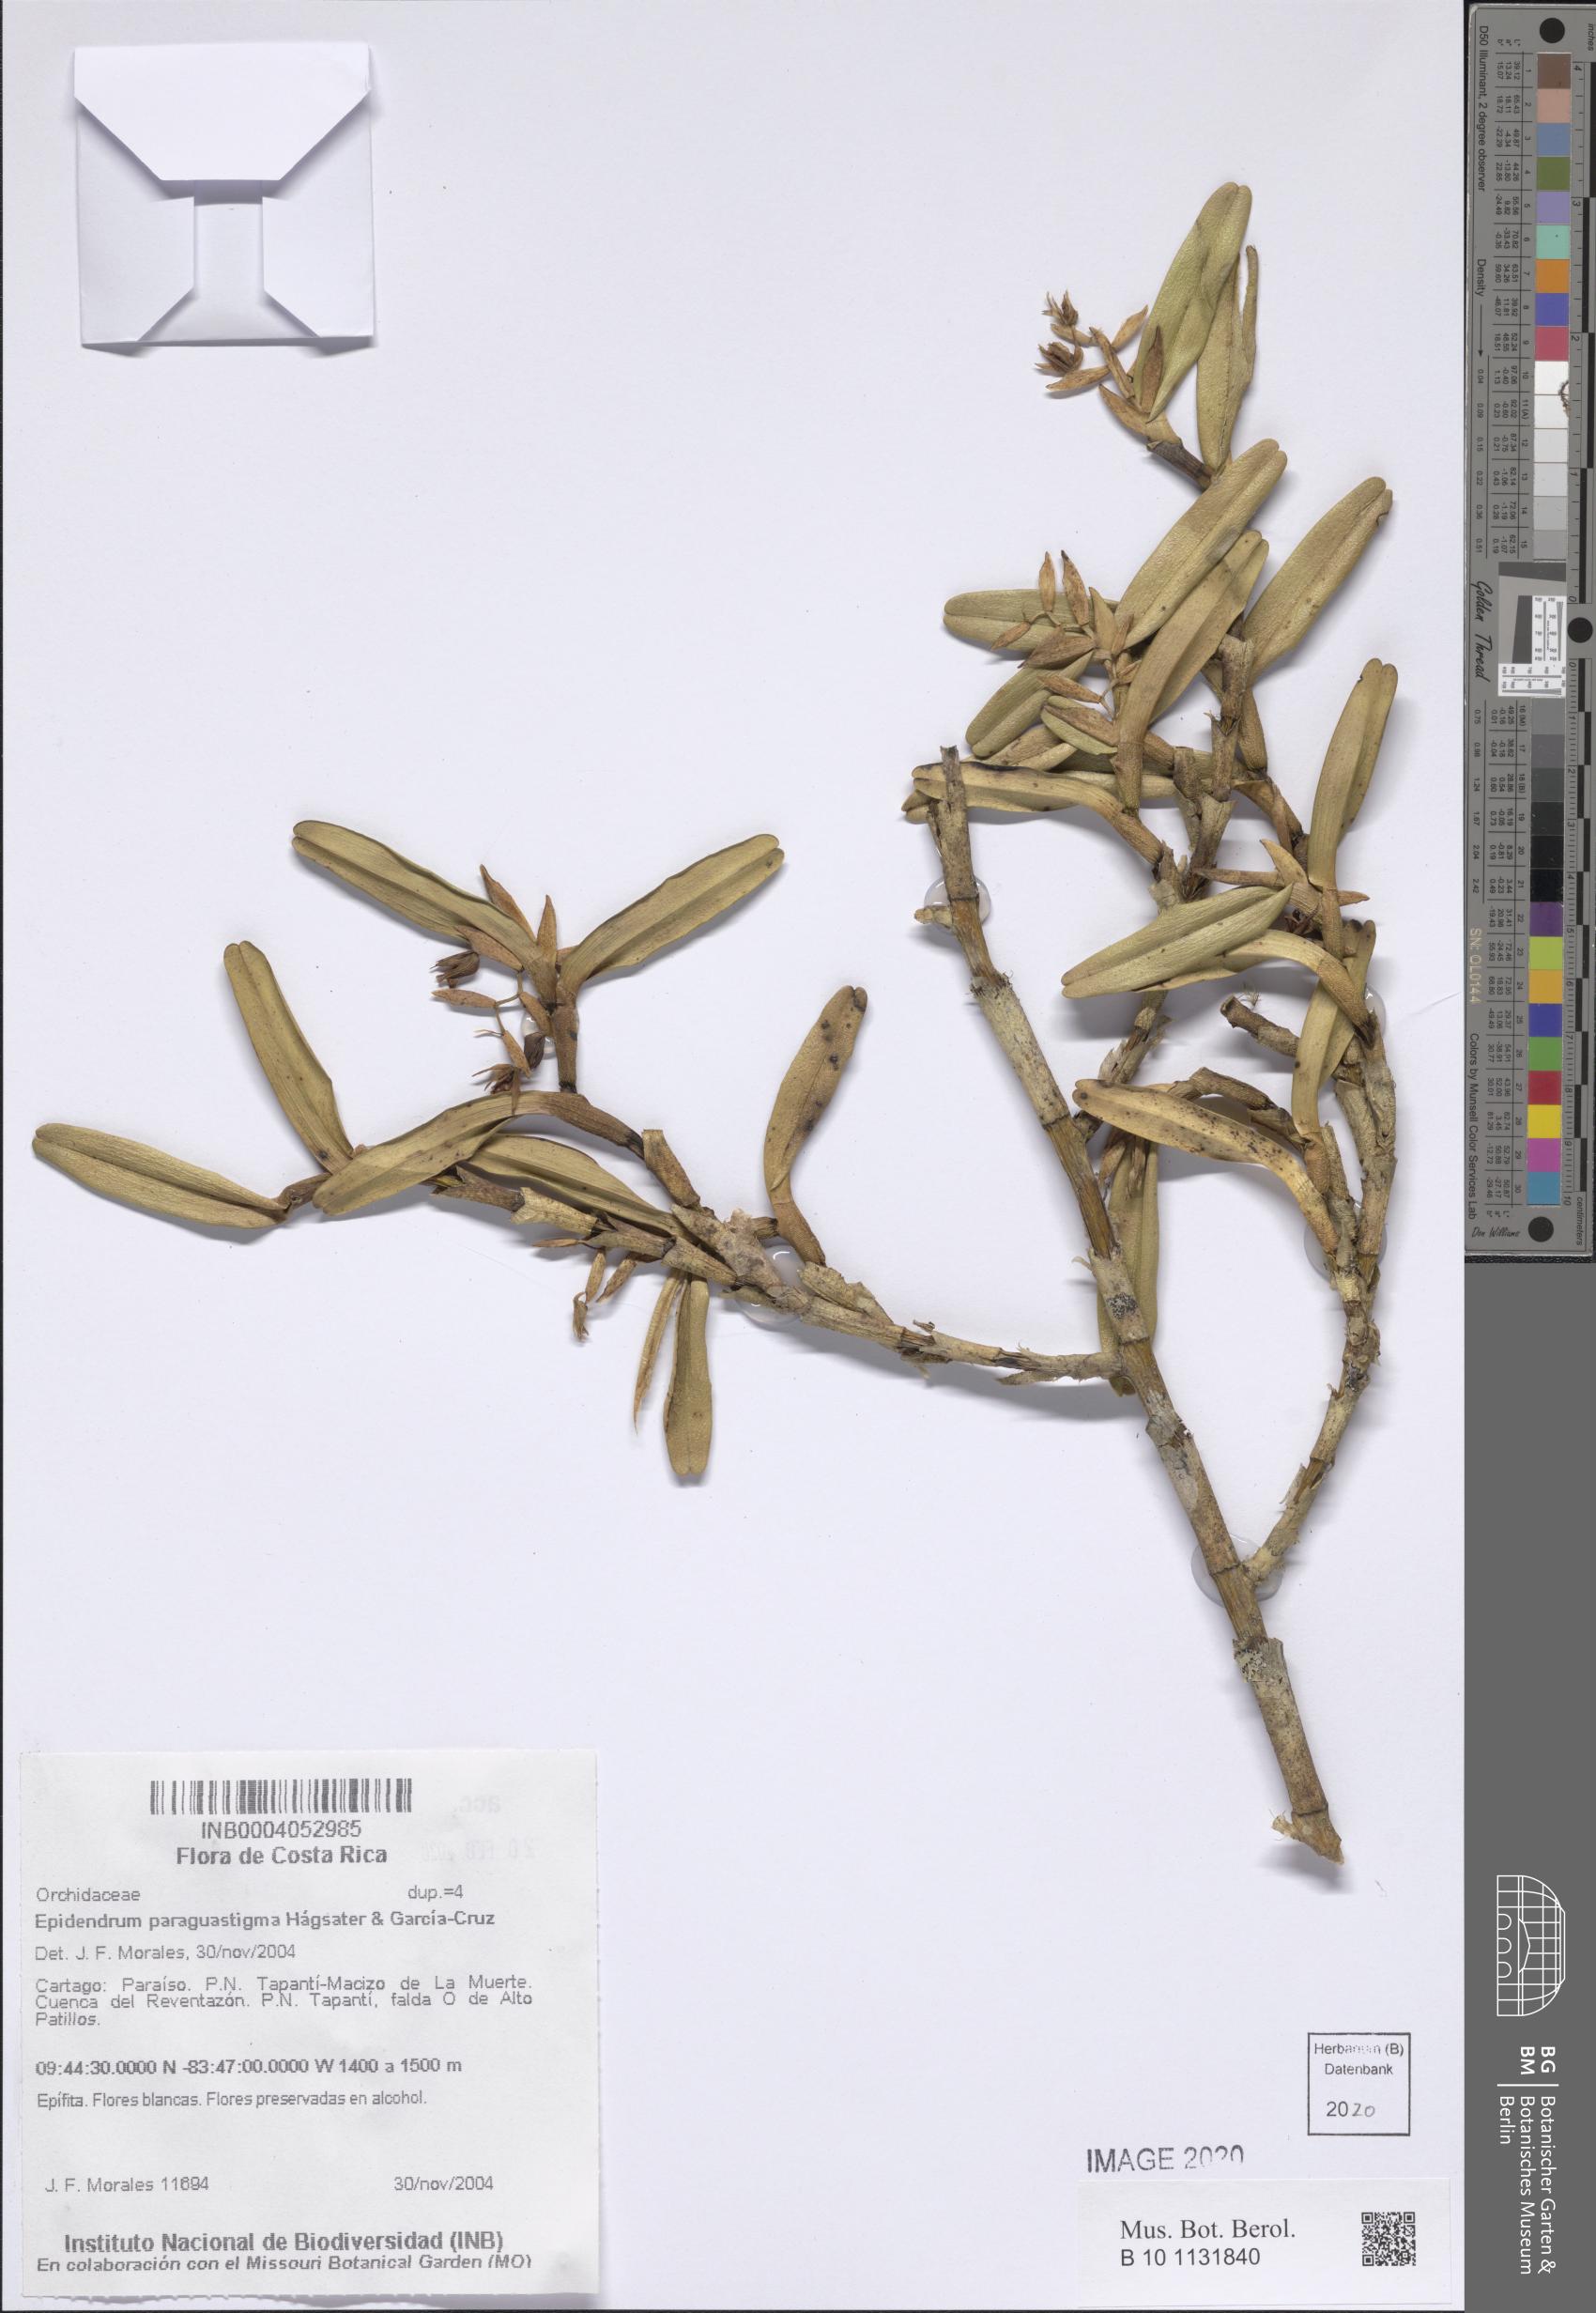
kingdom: Plantae
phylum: Tracheophyta
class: Liliopsida
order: Asparagales
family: Orchidaceae
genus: Epidendrum
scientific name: Epidendrum paraguastigma
